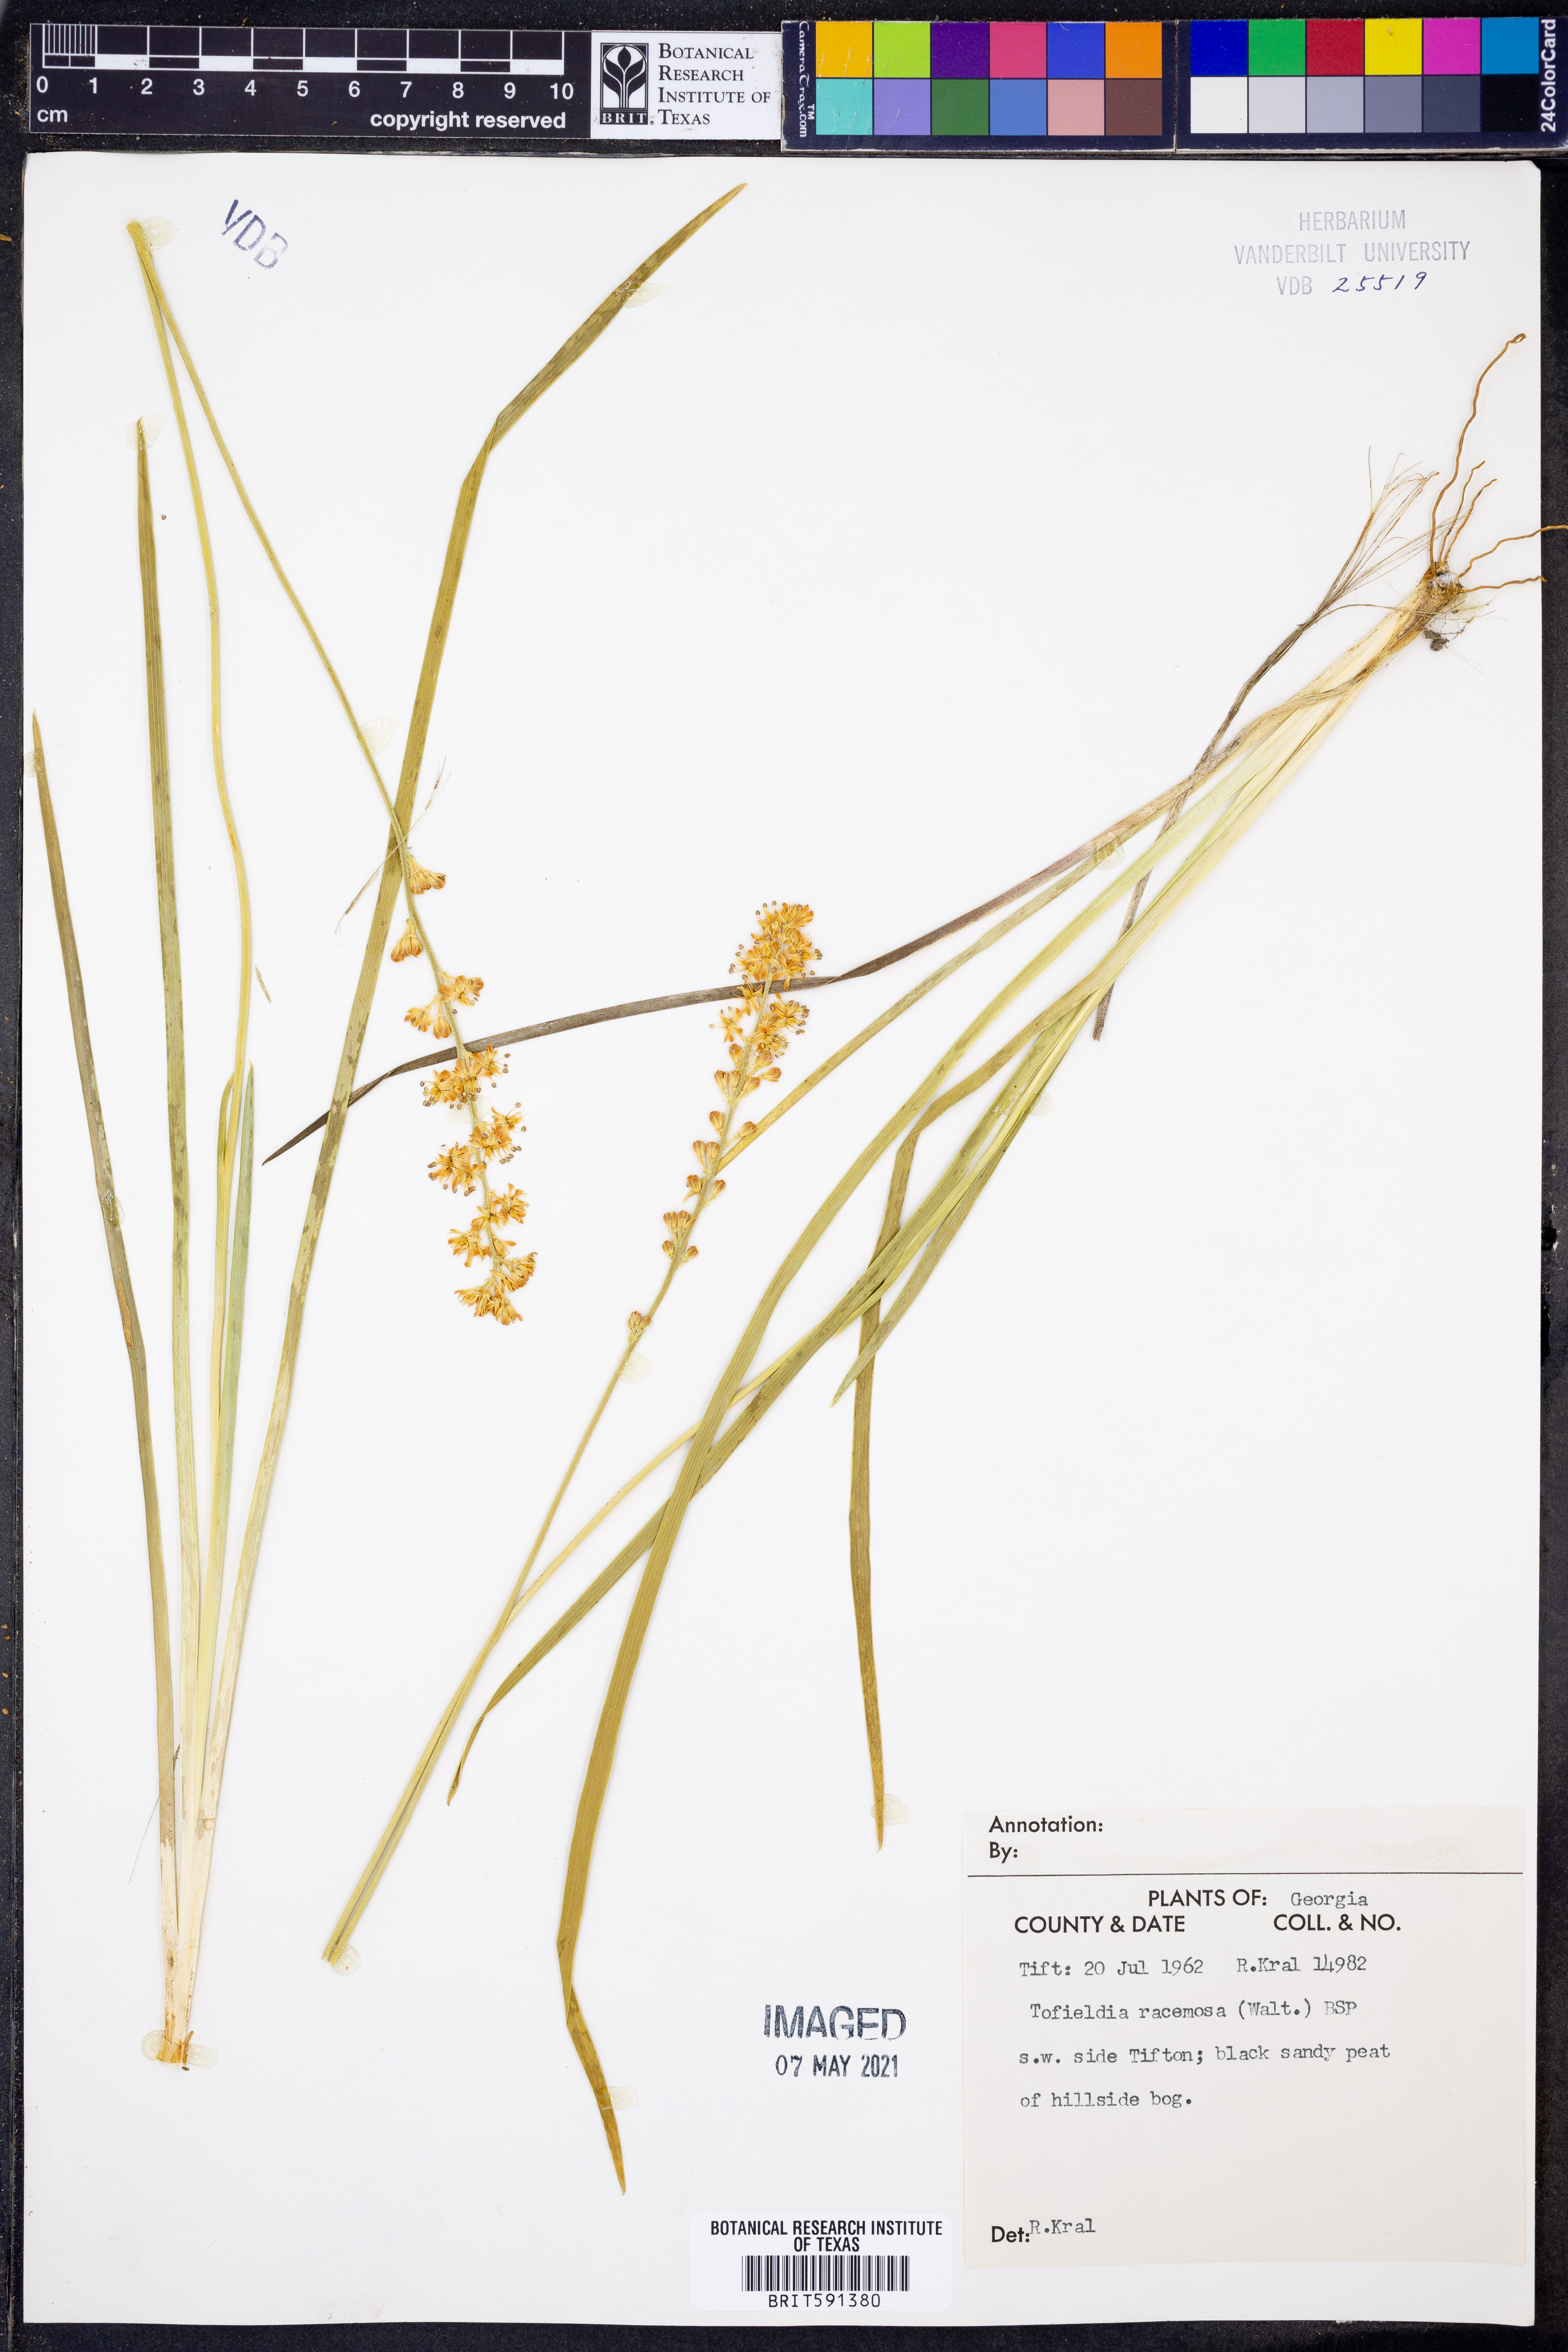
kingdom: Plantae
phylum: Tracheophyta
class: Liliopsida
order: Alismatales
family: Tofieldiaceae
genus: Triantha
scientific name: Triantha racemosa
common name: Coastal false asphodel
